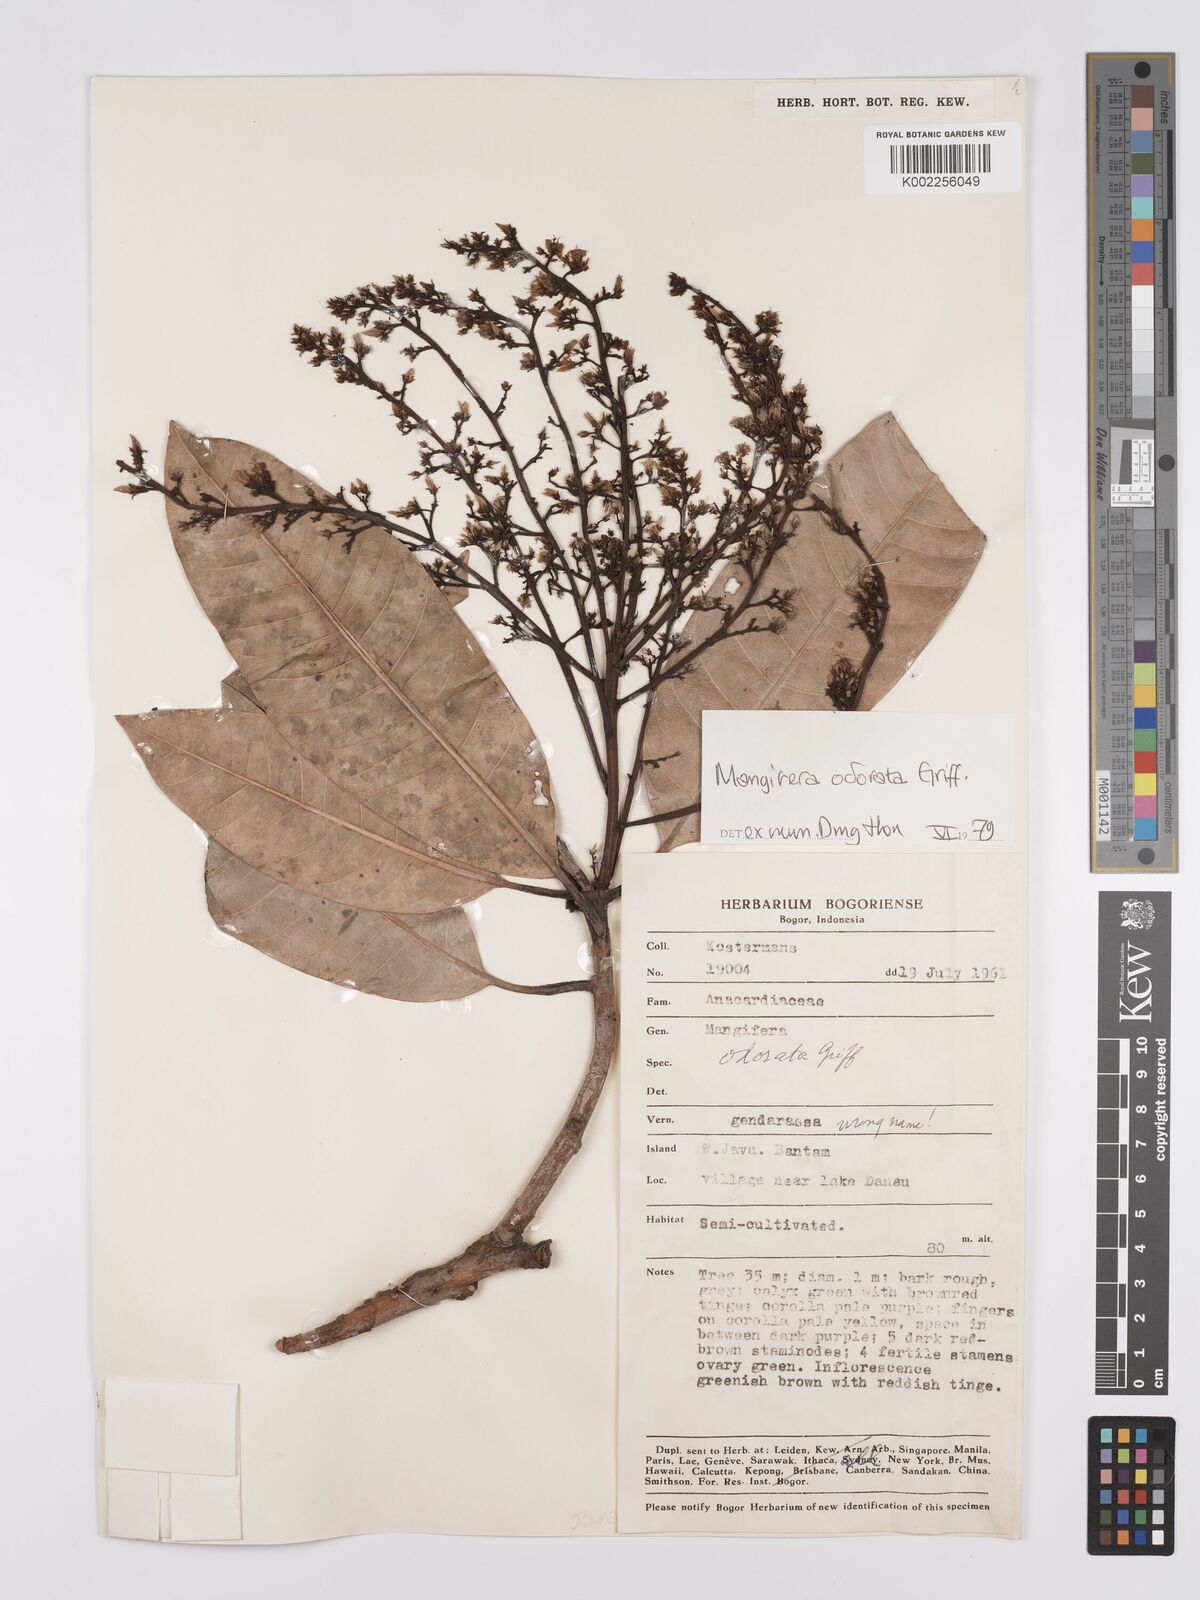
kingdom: Plantae
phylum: Tracheophyta
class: Magnoliopsida
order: Sapindales
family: Anacardiaceae
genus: Mangifera
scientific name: Mangifera odorata
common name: Saipan mango
